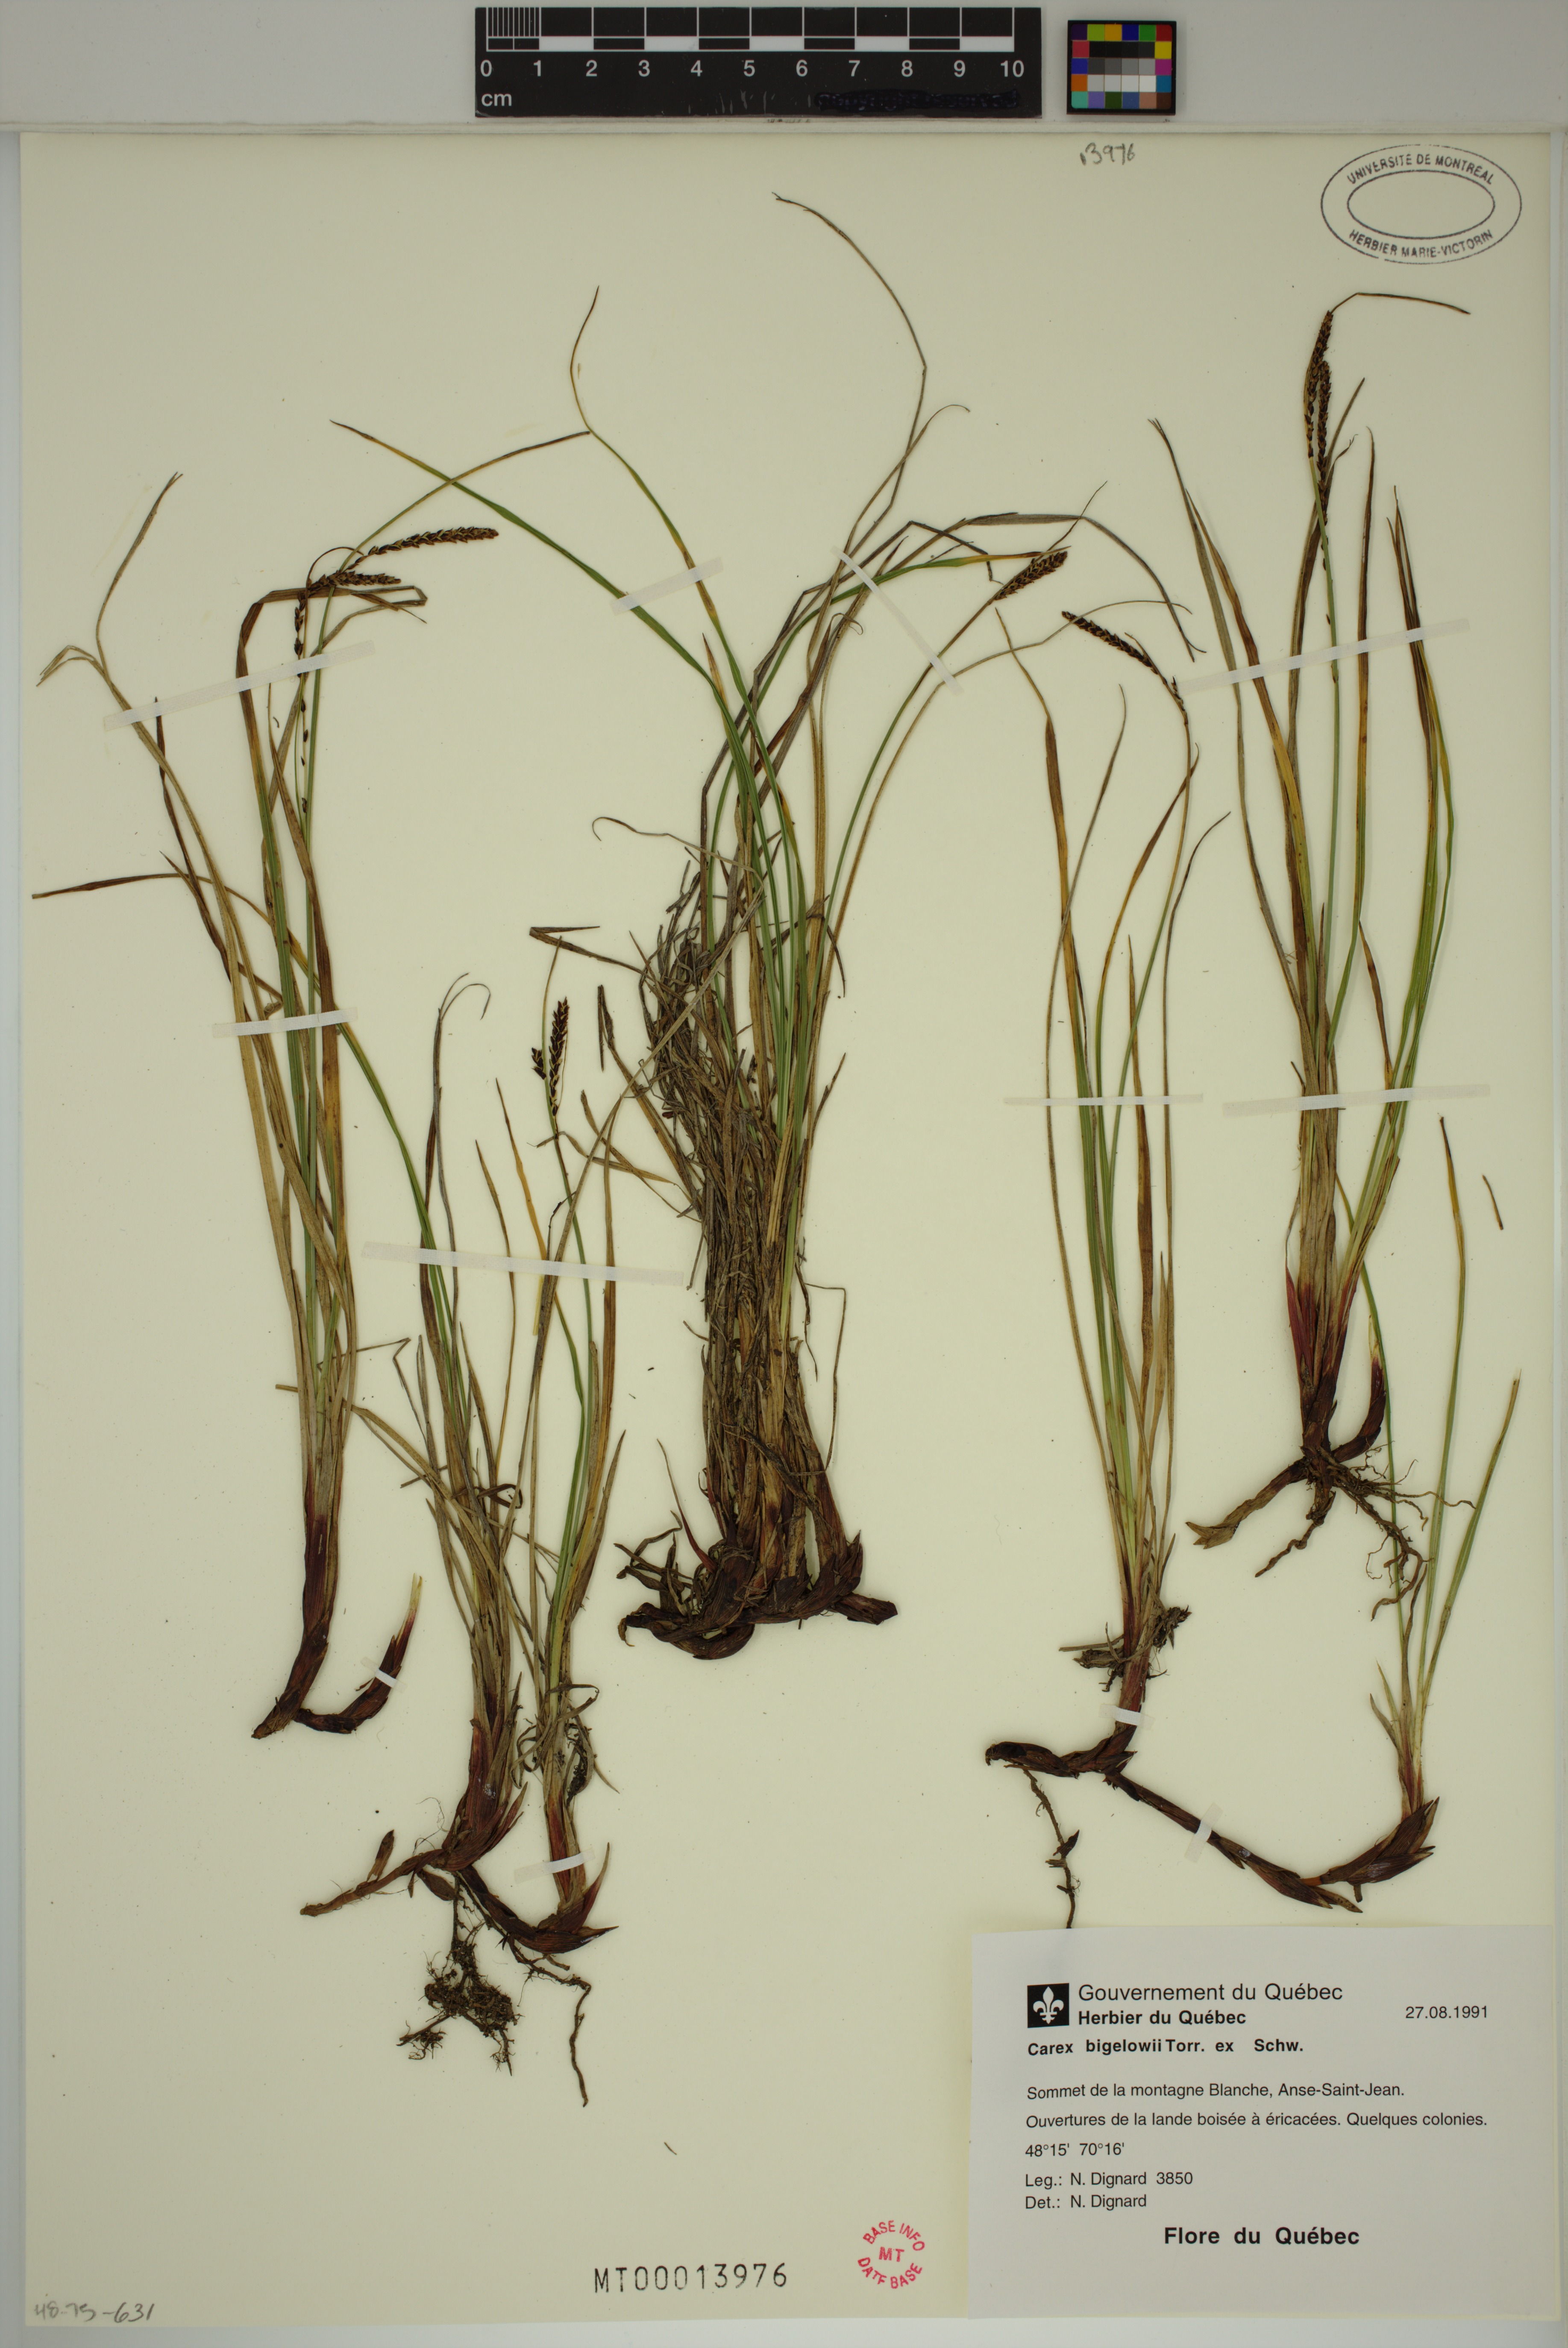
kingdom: Plantae
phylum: Tracheophyta
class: Liliopsida
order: Poales
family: Cyperaceae
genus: Carex
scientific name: Carex bigelowii
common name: Stiff sedge
